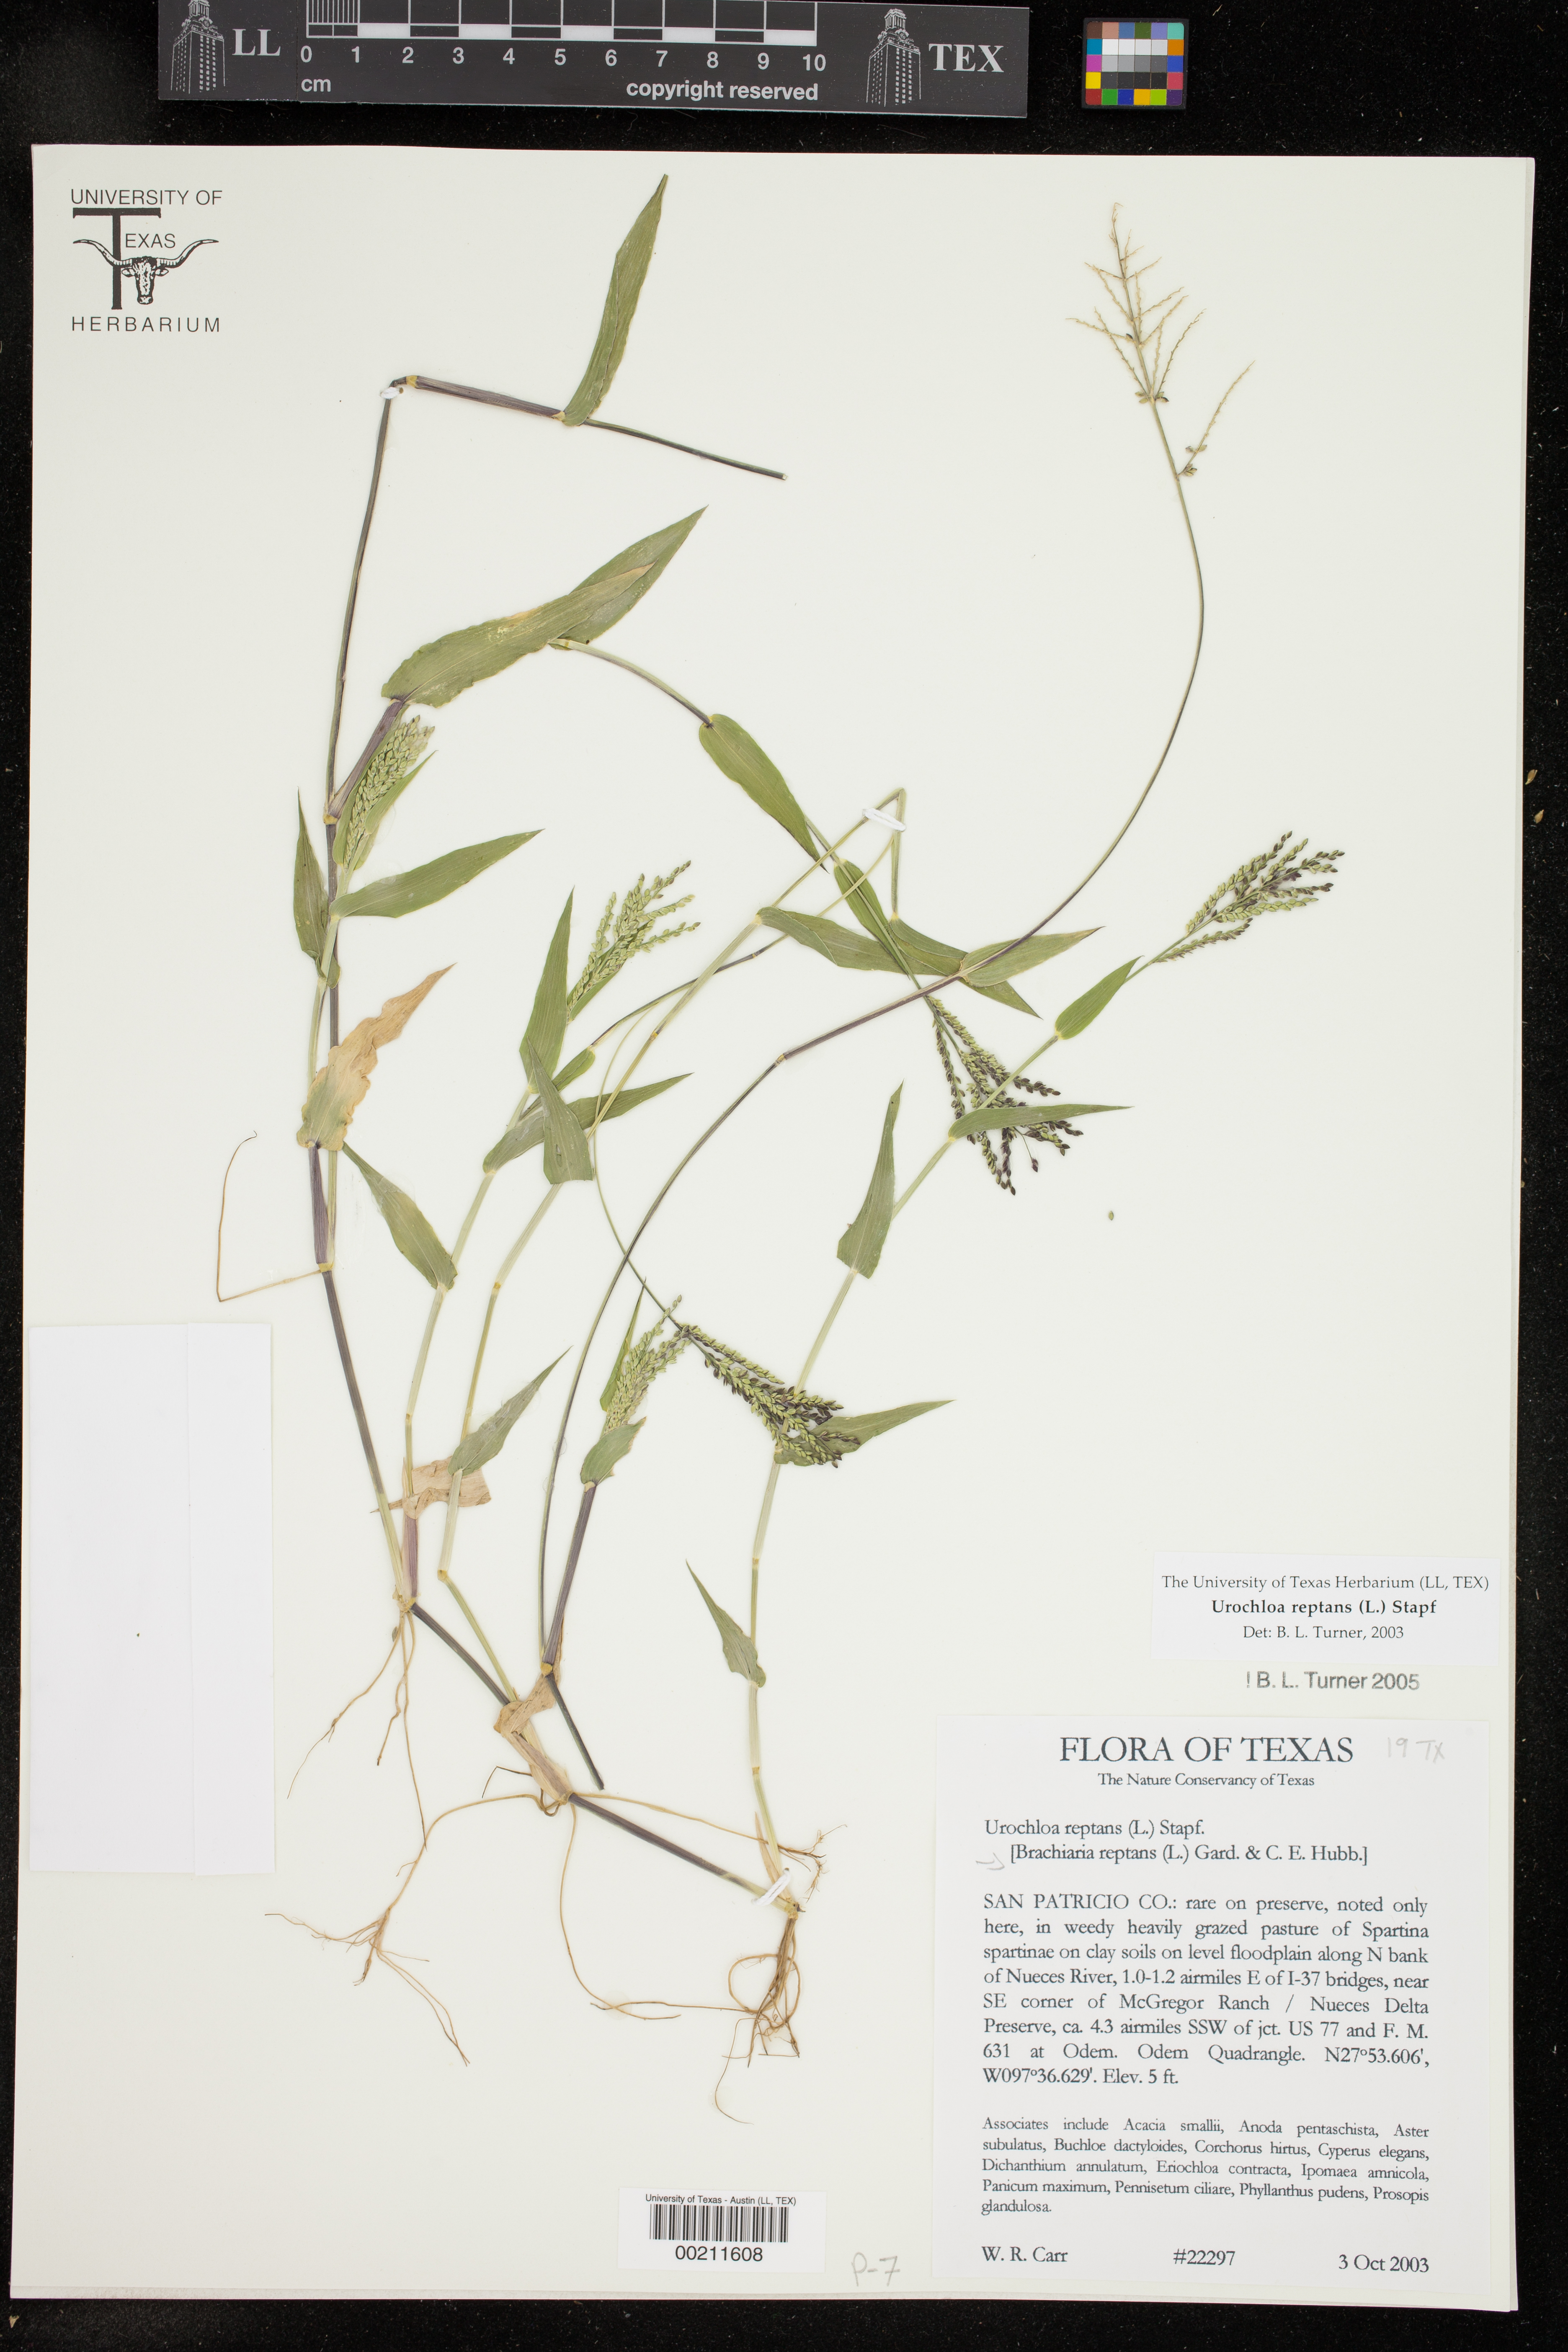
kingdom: Plantae
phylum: Tracheophyta
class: Liliopsida
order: Poales
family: Poaceae
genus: Urochloa
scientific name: Urochloa reptans
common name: Sprawling signalgrass
